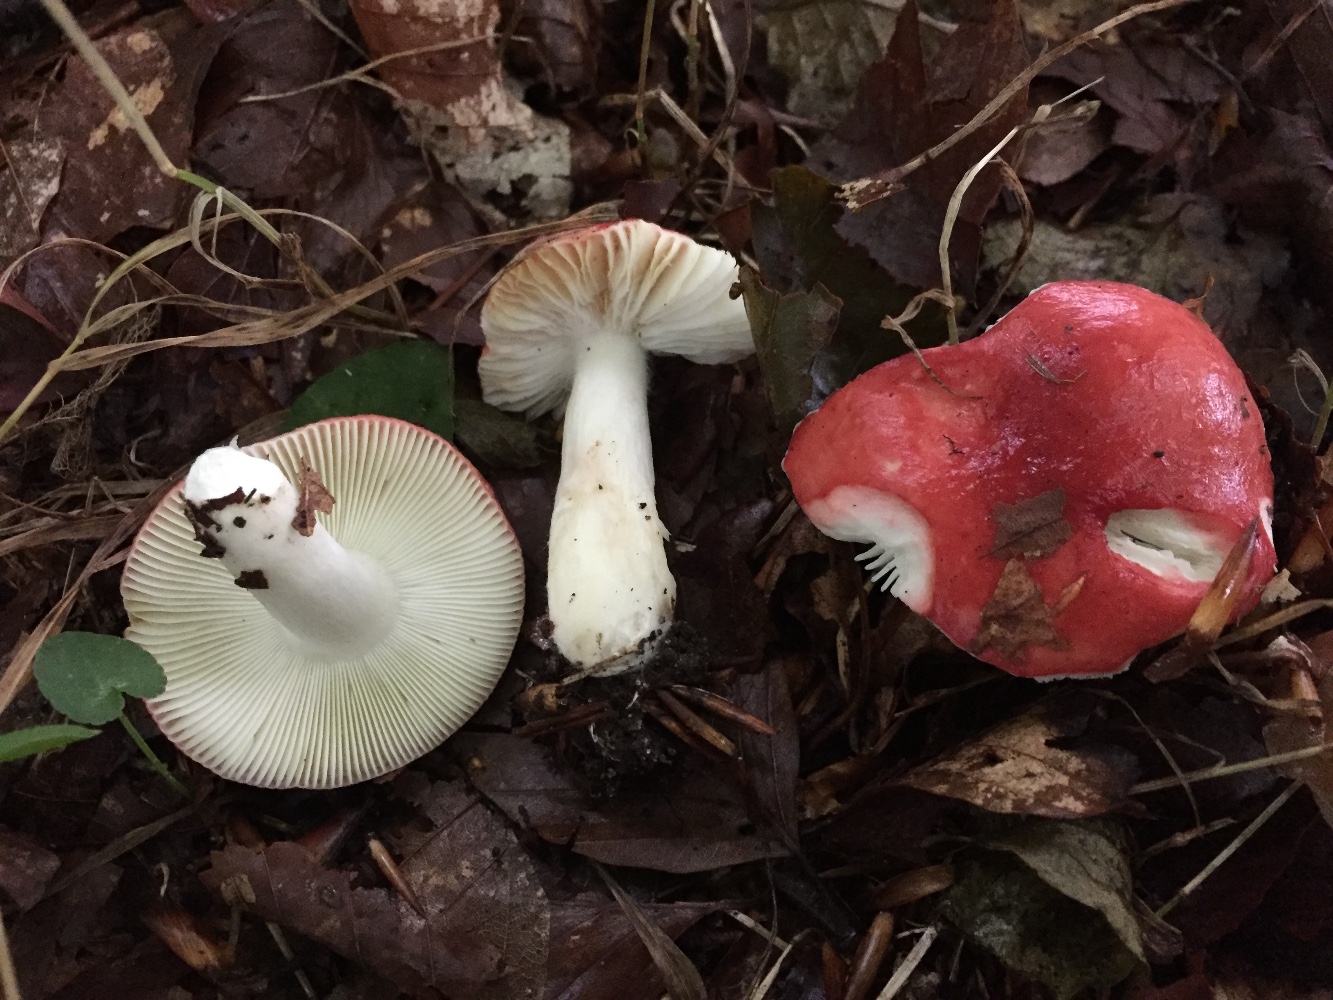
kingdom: Fungi
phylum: Basidiomycota
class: Agaricomycetes
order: Russulales
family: Russulaceae
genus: Russula
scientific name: Russula nobilis
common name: lille gift-skørhat
